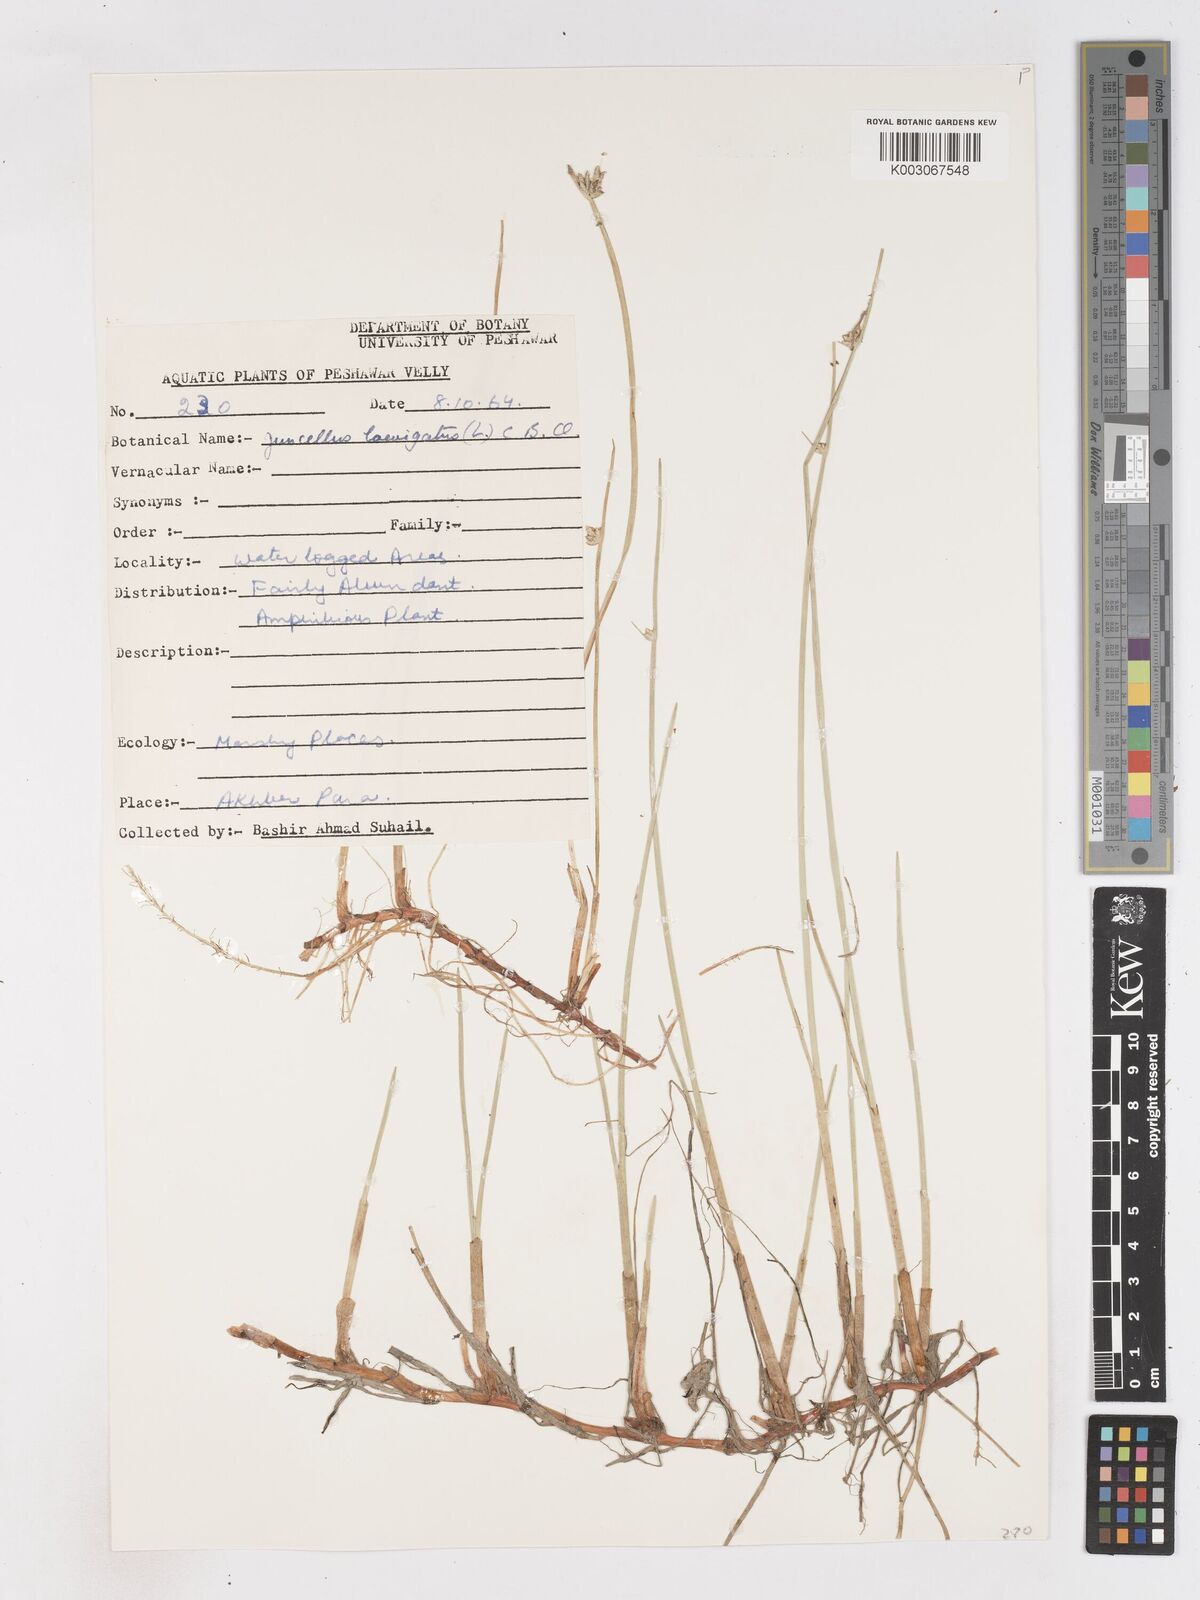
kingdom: Plantae
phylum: Tracheophyta
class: Liliopsida
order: Poales
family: Cyperaceae
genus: Cyperus
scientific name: Cyperus laevigatus
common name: Smooth flat sedge
